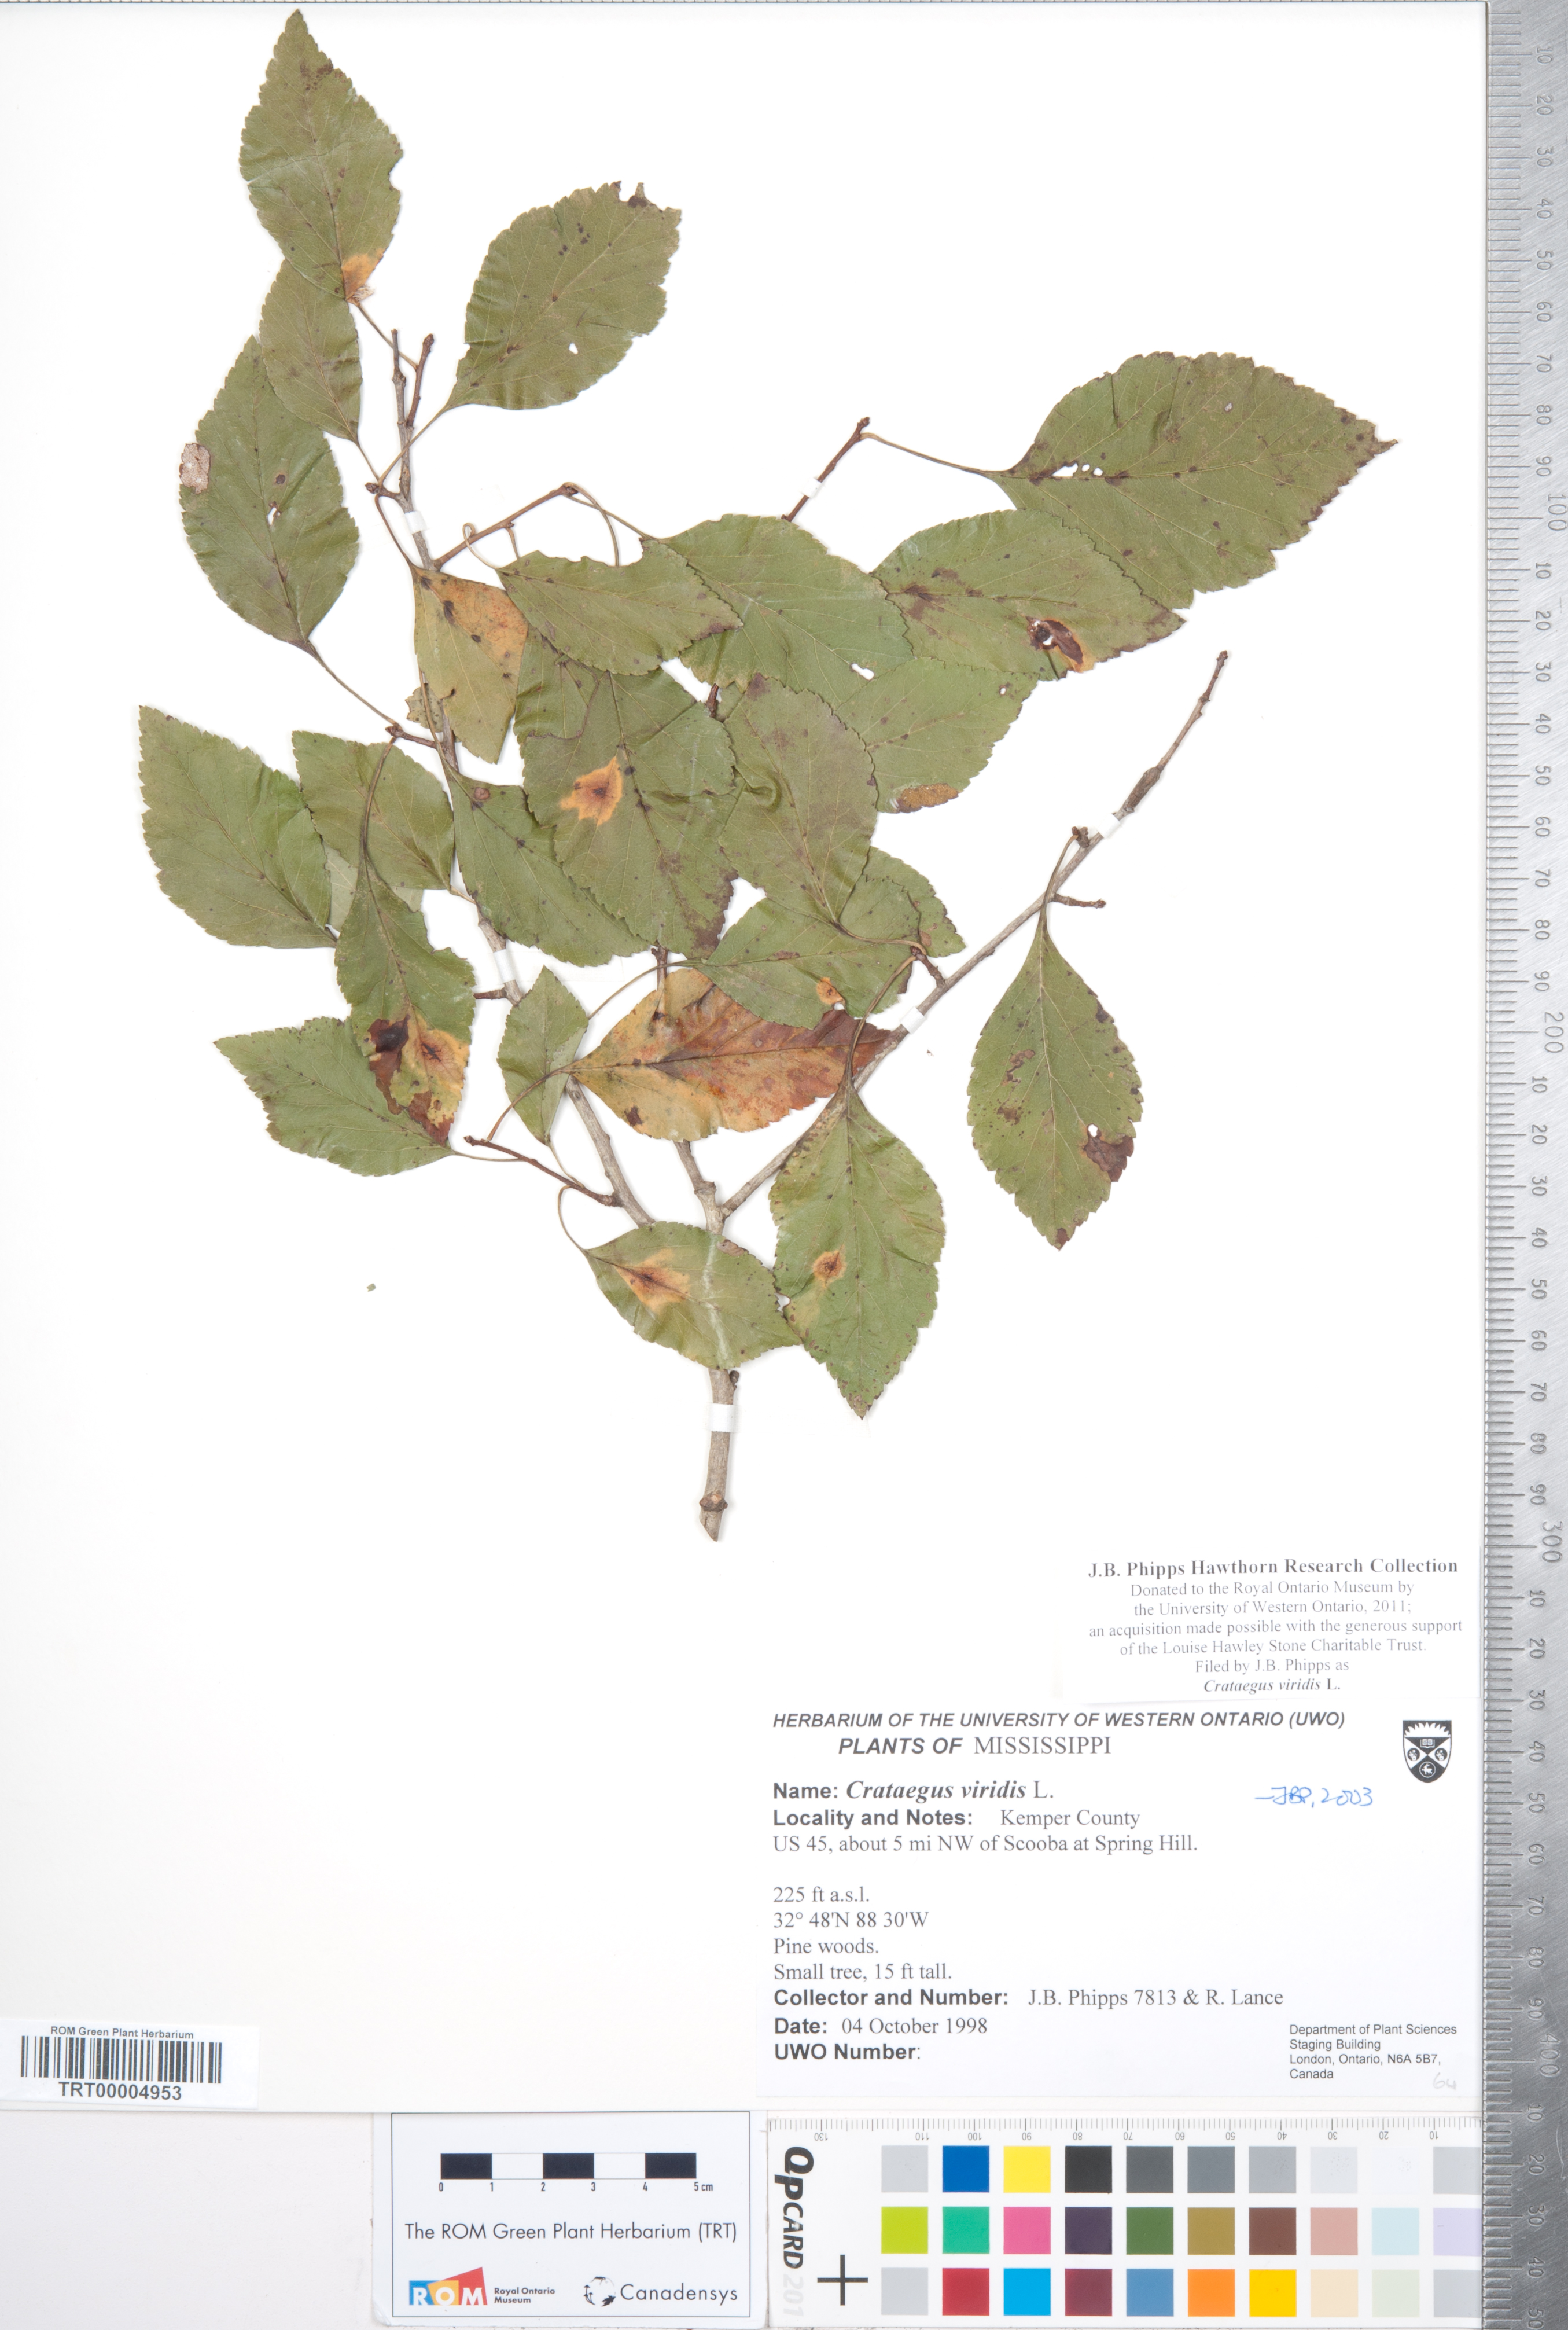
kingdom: Plantae
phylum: Tracheophyta
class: Magnoliopsida
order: Rosales
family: Rosaceae
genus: Crataegus
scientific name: Crataegus viridis
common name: Southernthorn
